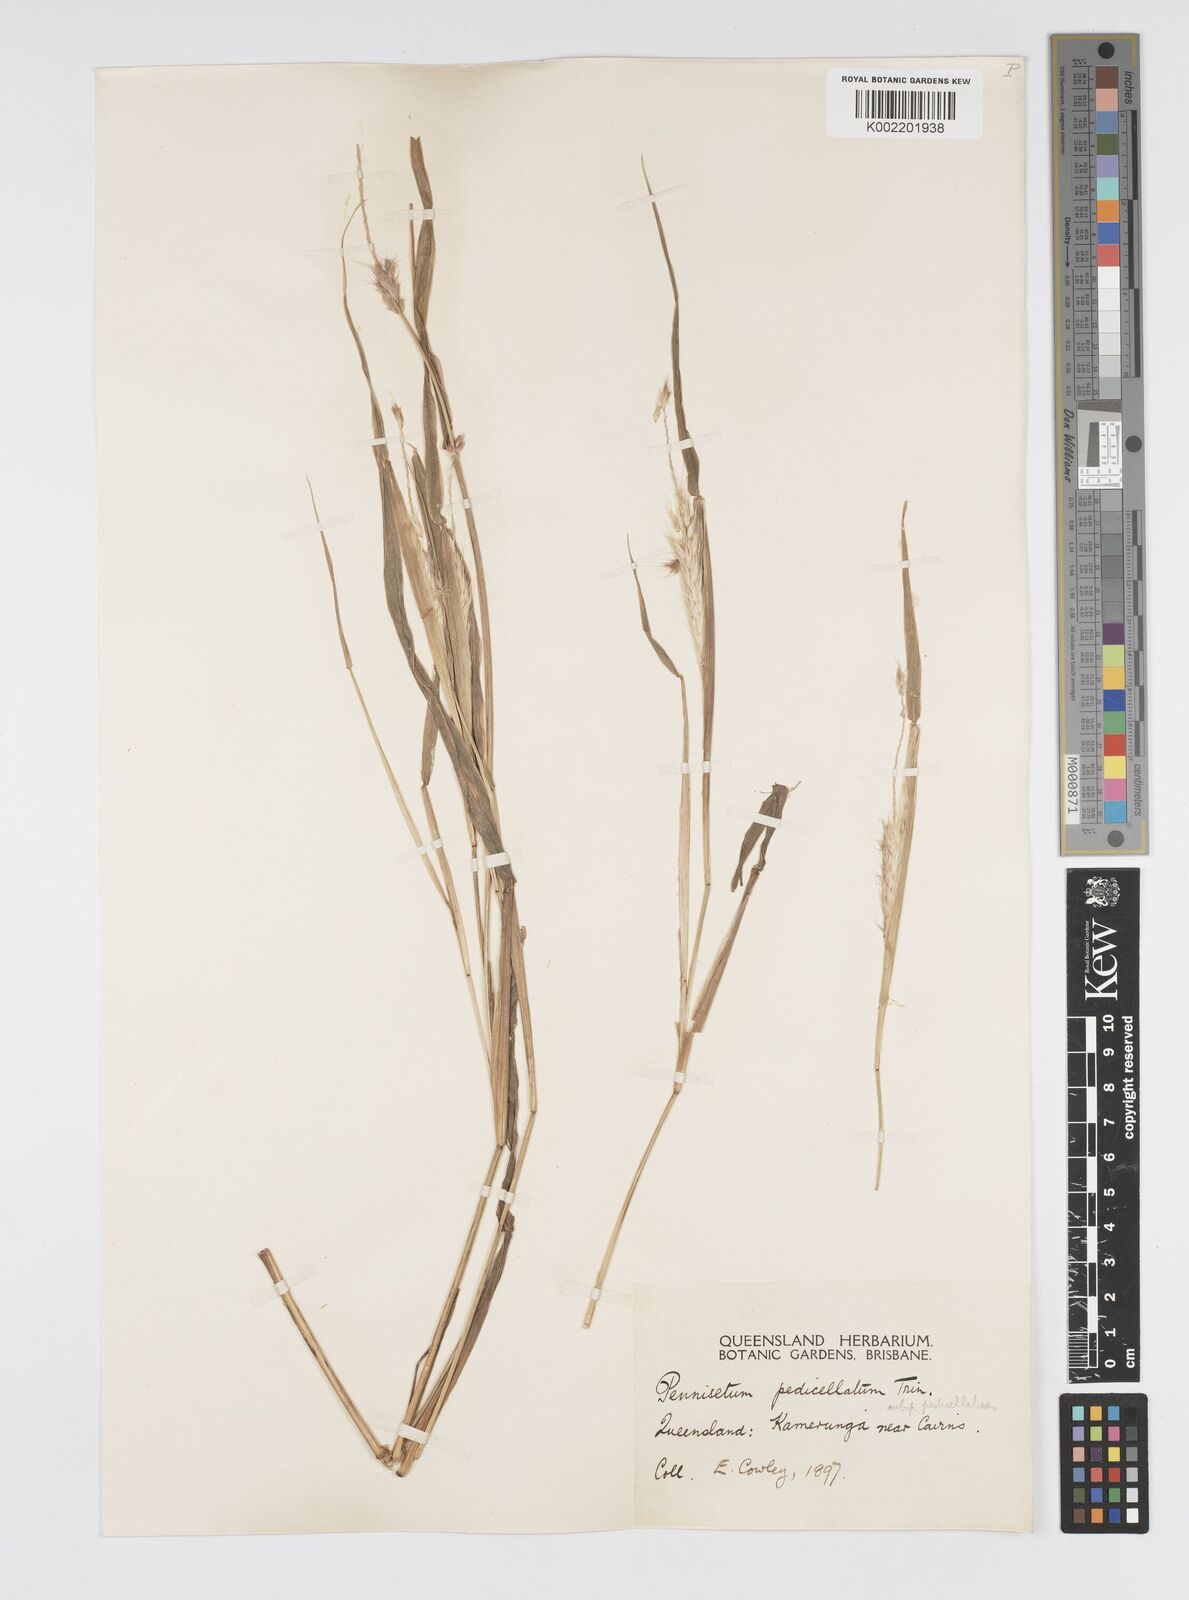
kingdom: Plantae
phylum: Tracheophyta
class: Liliopsida
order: Poales
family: Poaceae
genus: Cenchrus
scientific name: Cenchrus pedicellatus
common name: Hairy fountain grass
